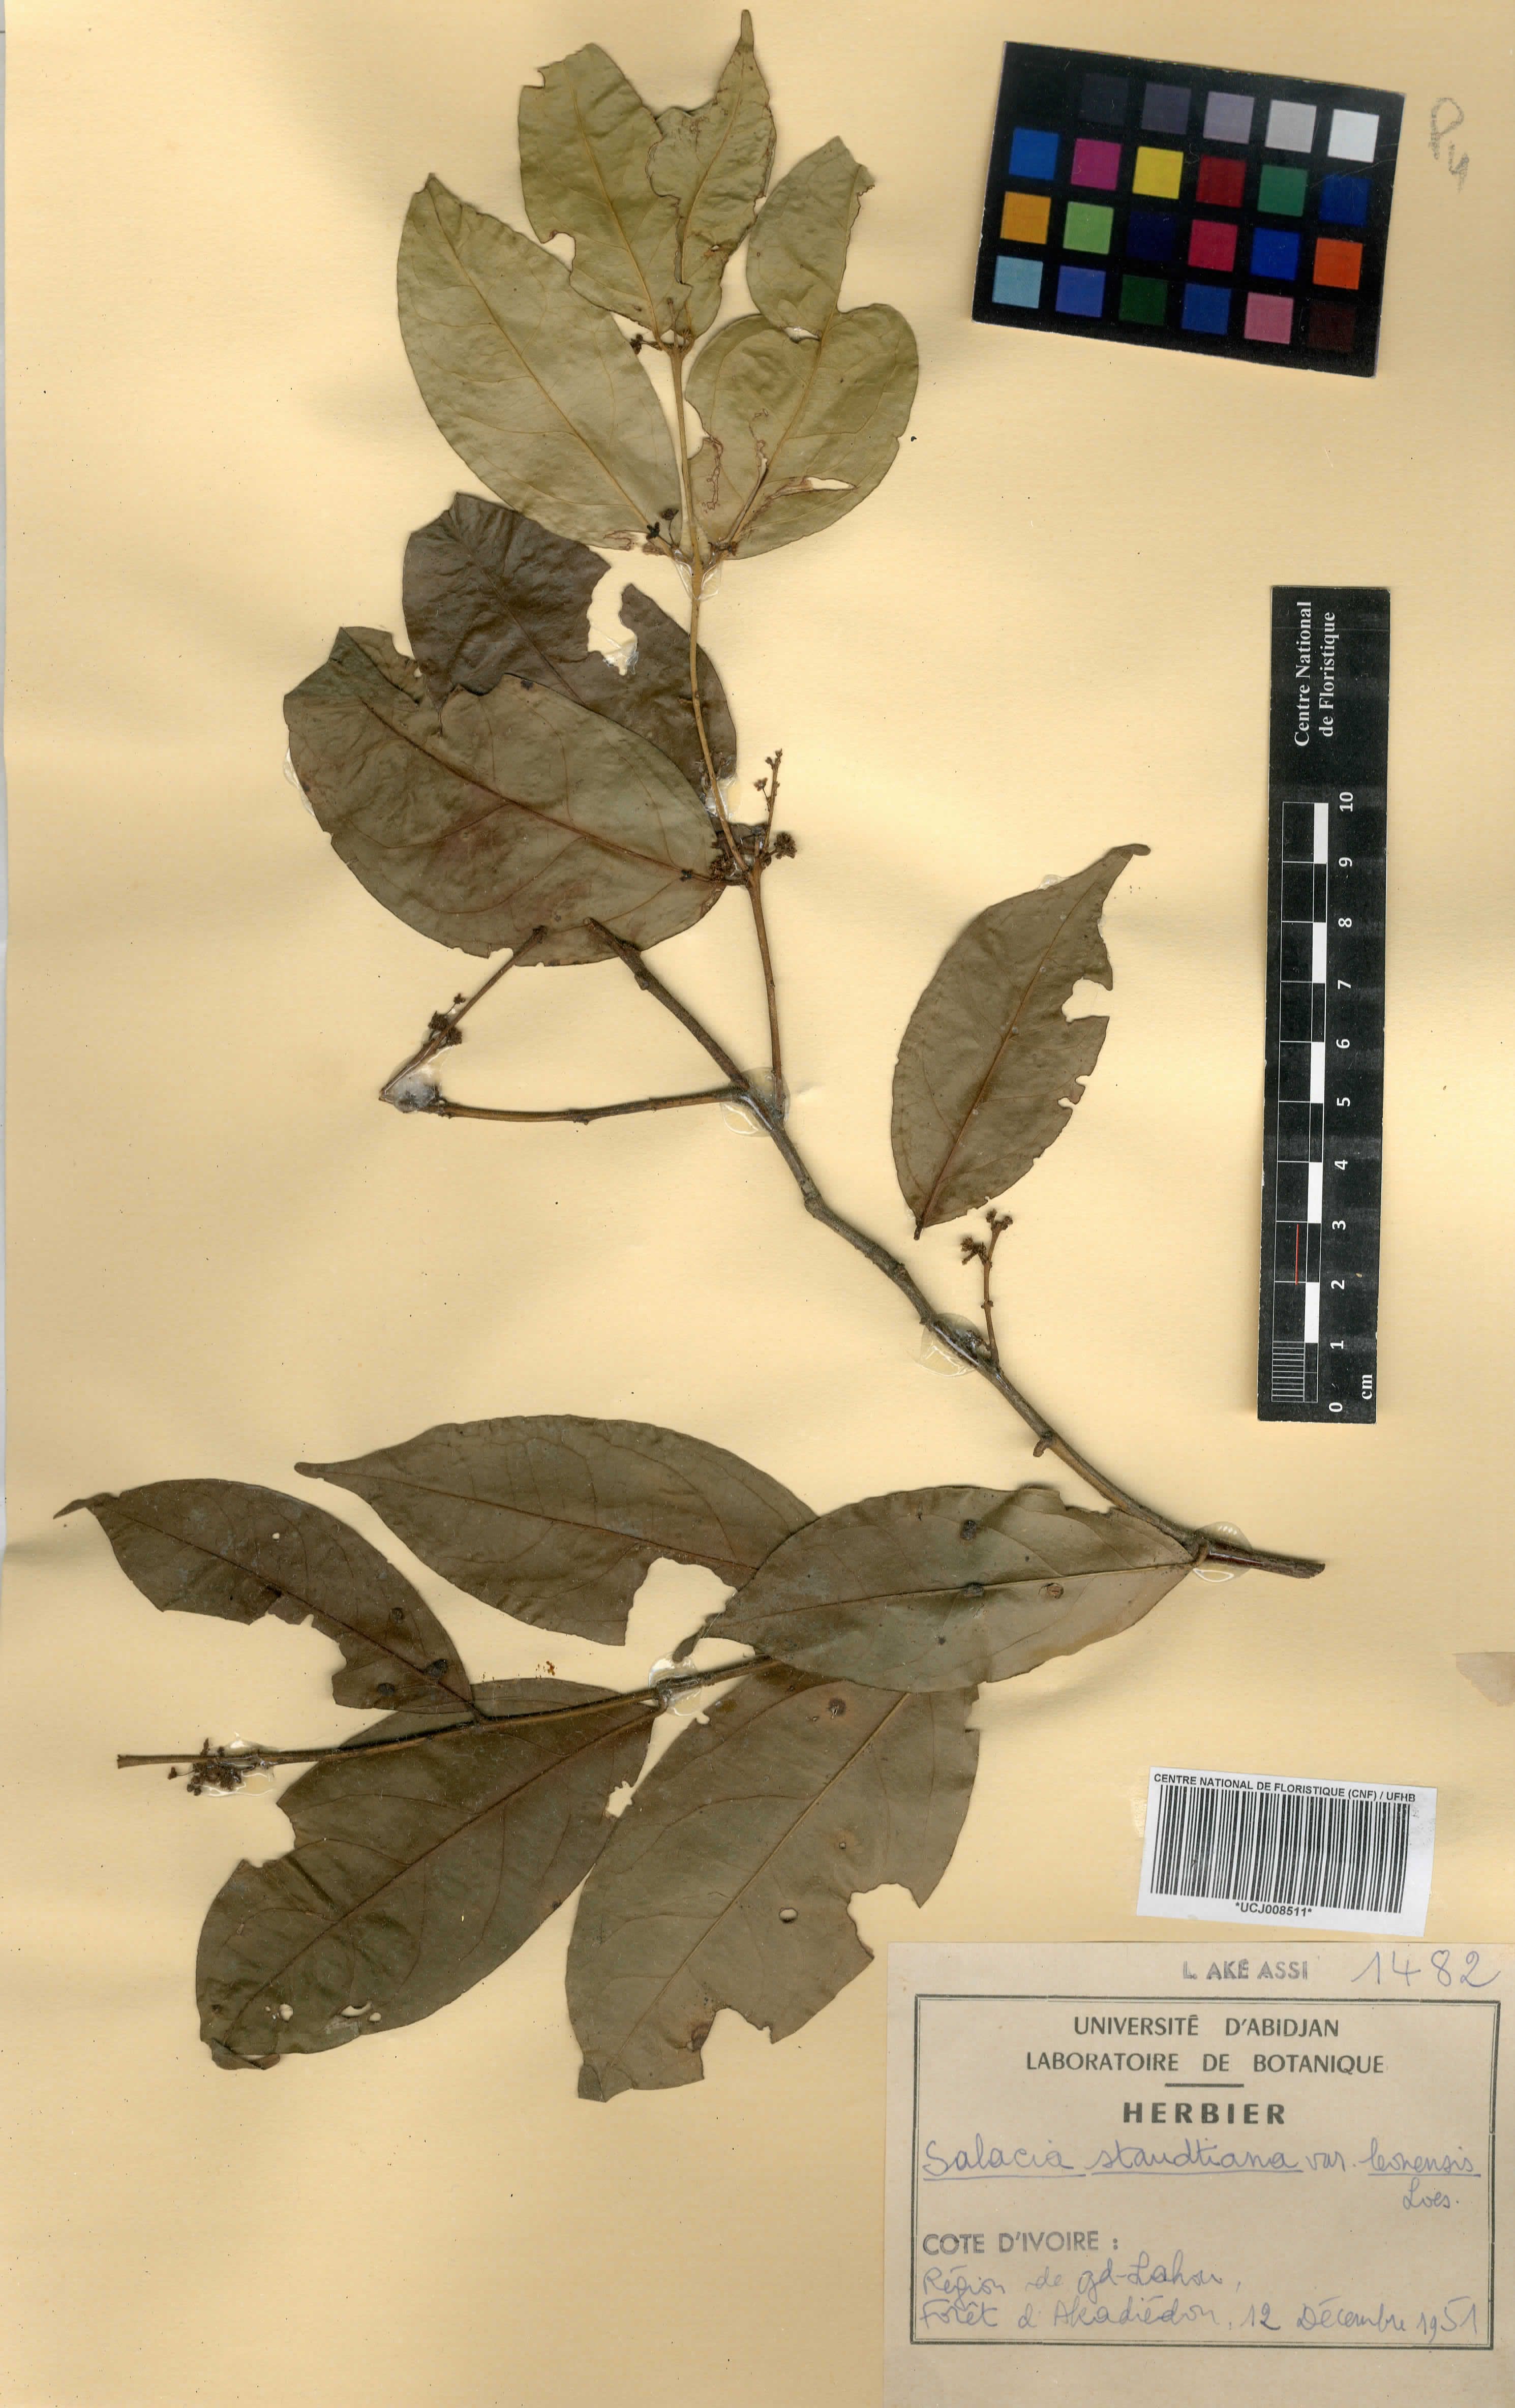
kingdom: Plantae
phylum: Tracheophyta
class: Magnoliopsida
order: Celastrales
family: Celastraceae
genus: Salacia
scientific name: Salacia caillei
